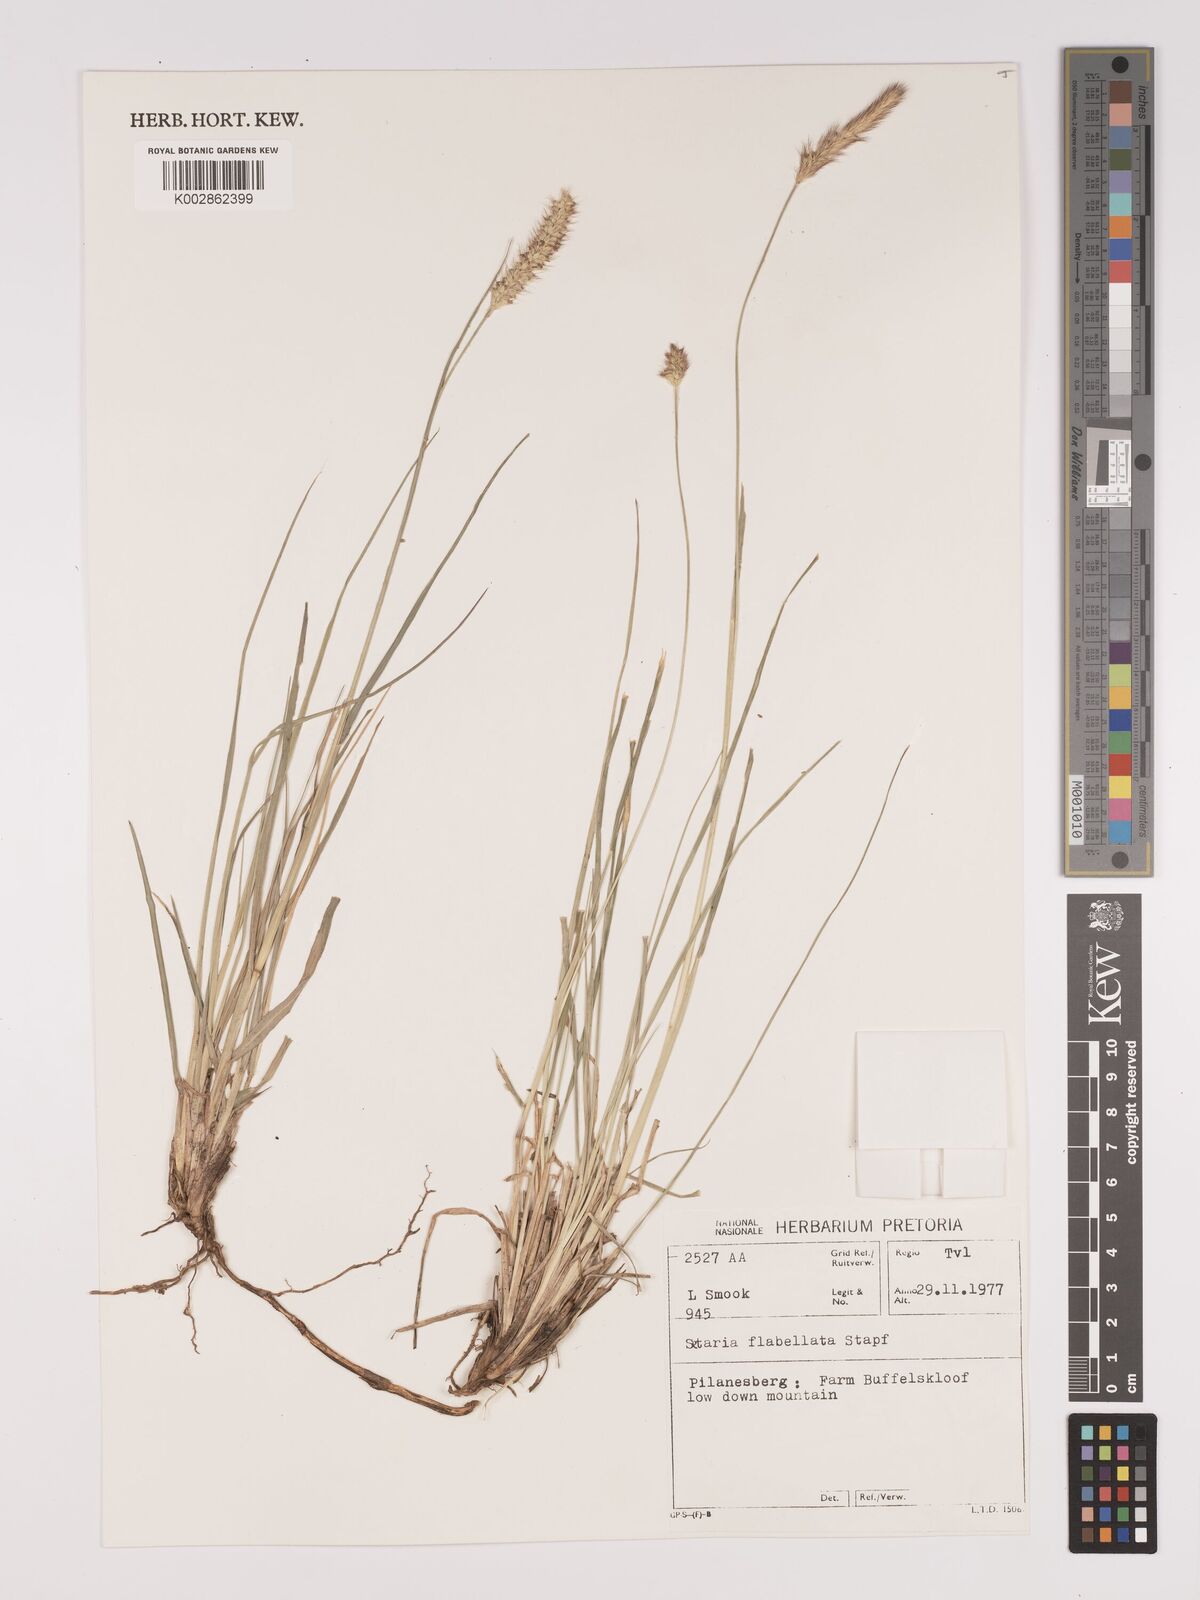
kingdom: Plantae
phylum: Tracheophyta
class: Liliopsida
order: Poales
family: Poaceae
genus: Setaria
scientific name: Setaria sphacelata
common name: African bristlegrass
